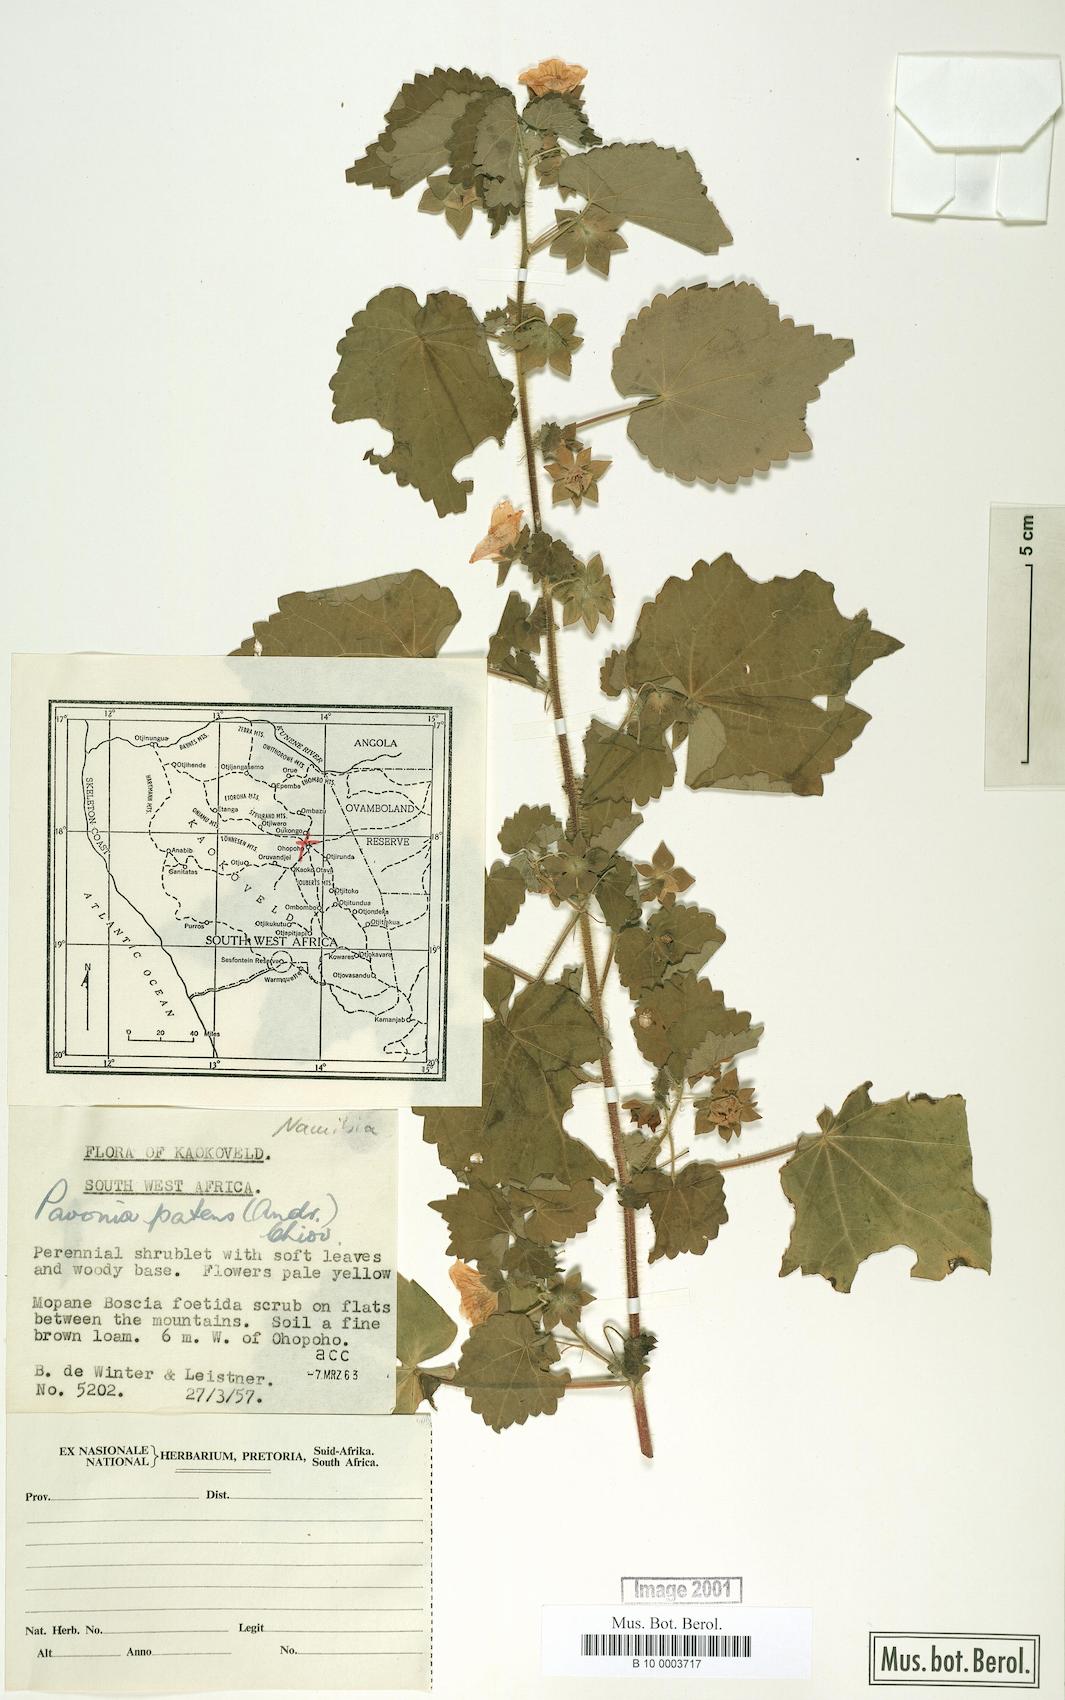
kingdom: Plantae
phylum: Tracheophyta
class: Magnoliopsida
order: Malvales
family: Malvaceae
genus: Abutilon
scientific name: Abutilon mauritianum
